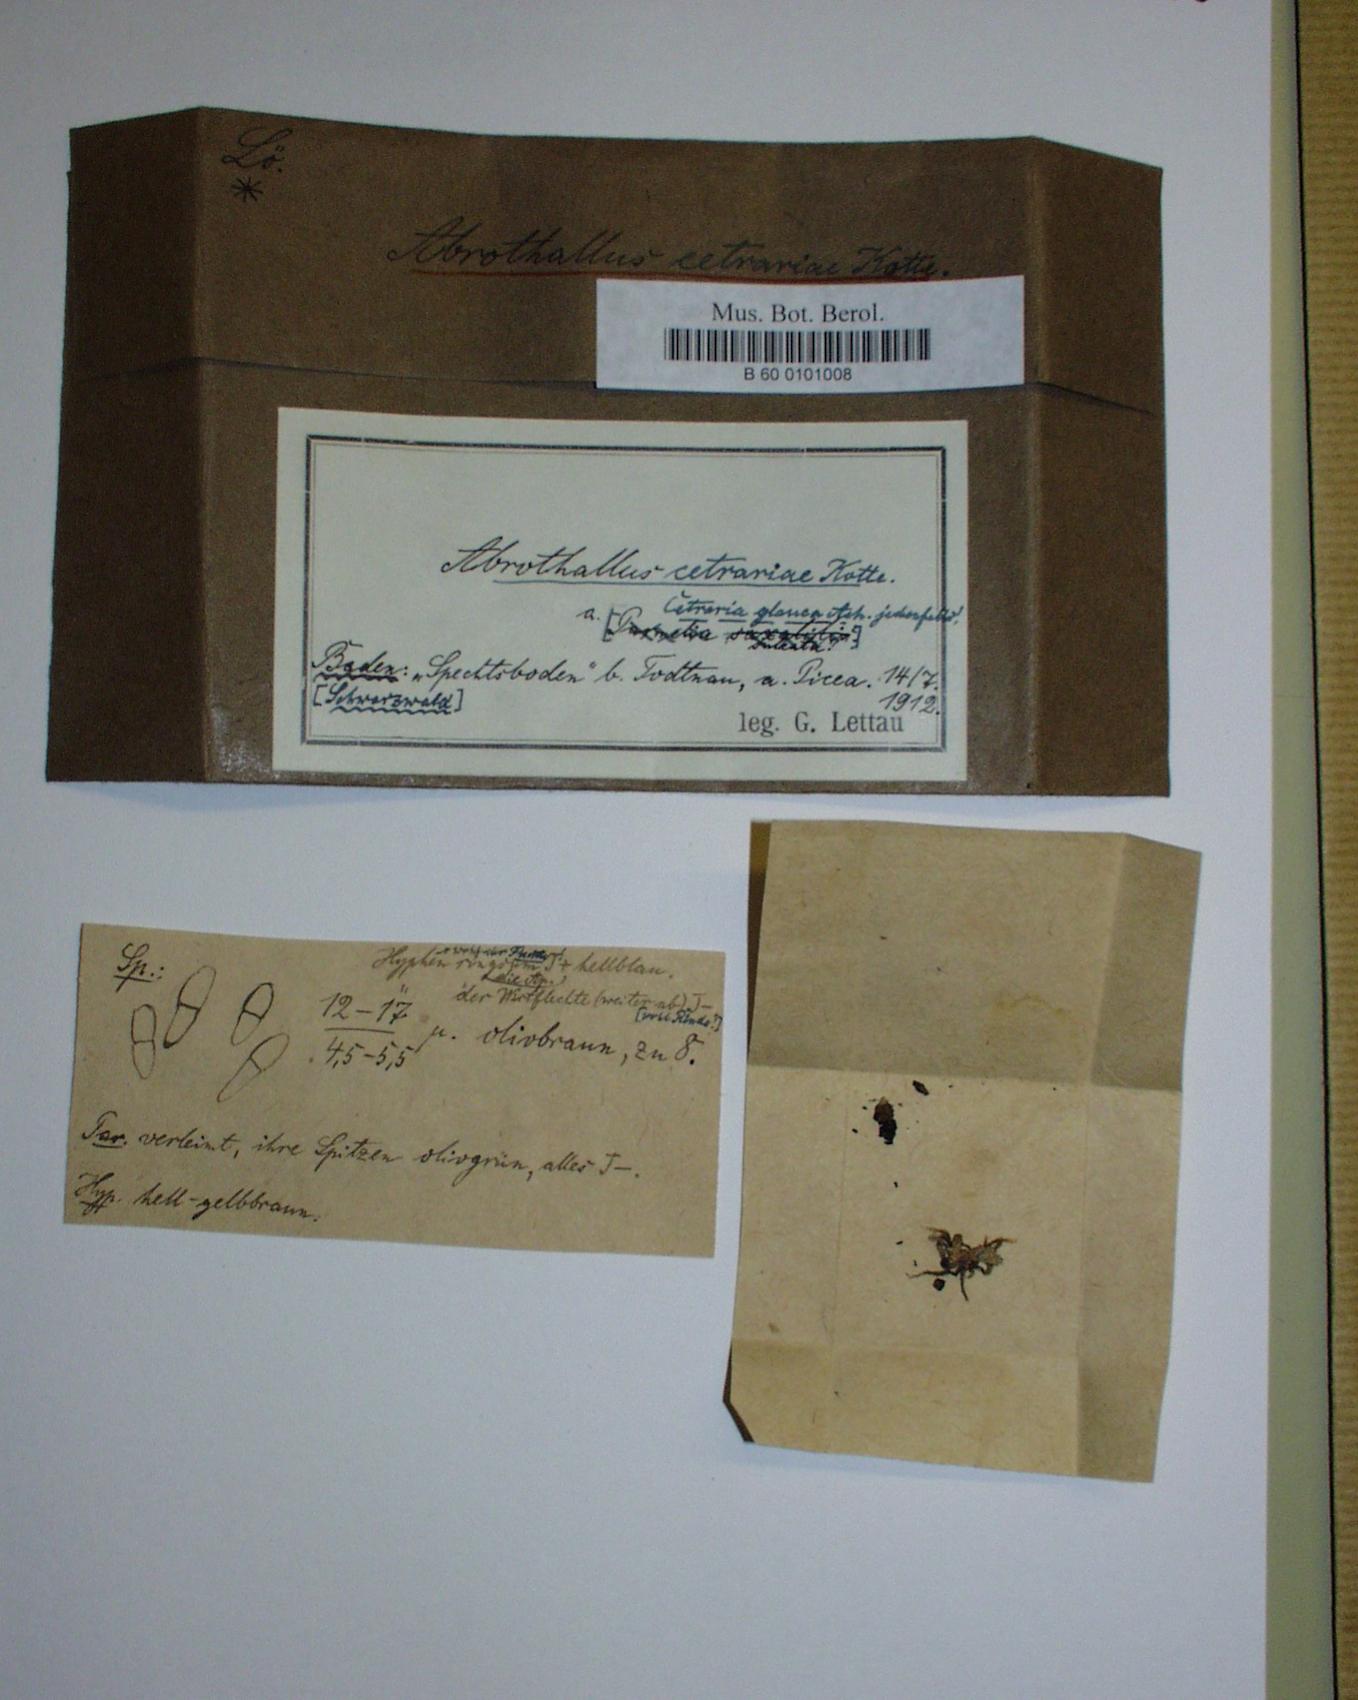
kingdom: Fungi
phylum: Ascomycota
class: Dothideomycetes
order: Abrothallales
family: Abrothallaceae
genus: Abrothallus
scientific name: Abrothallus cetrariae
